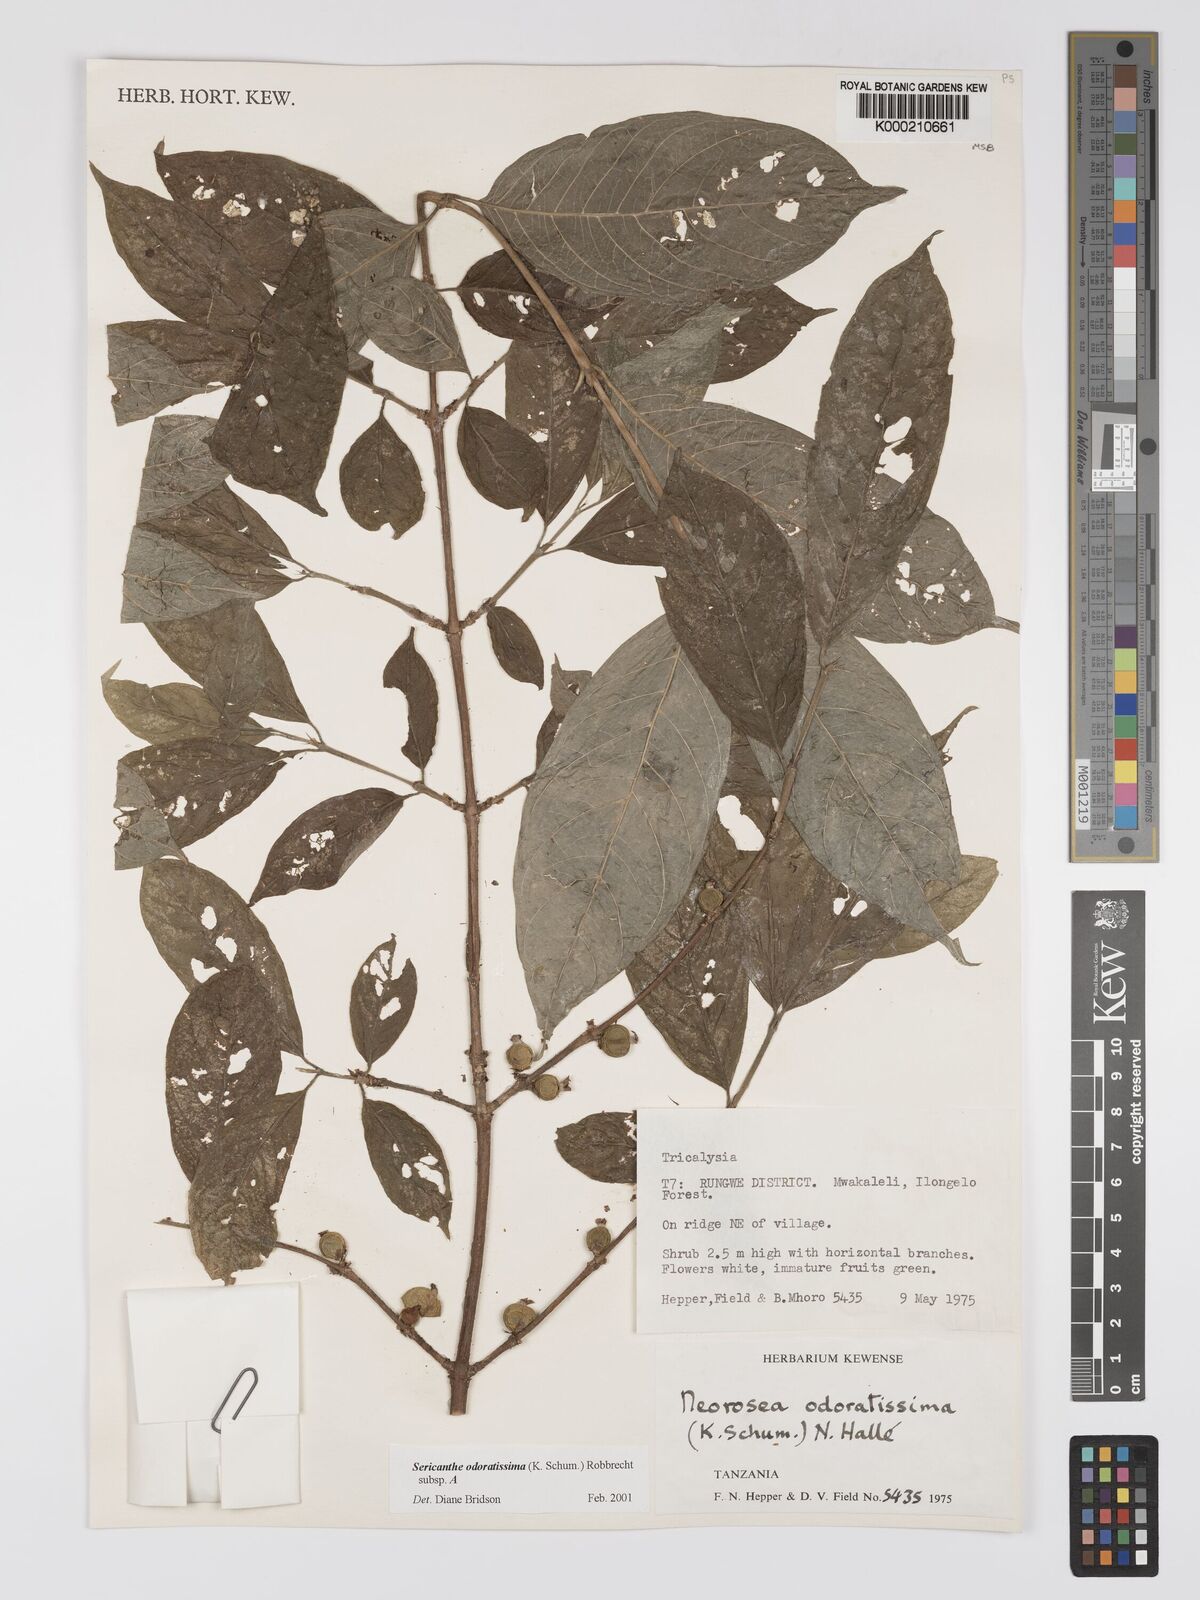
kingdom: Plantae
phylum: Tracheophyta
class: Magnoliopsida
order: Gentianales
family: Rubiaceae
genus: Sericanthe
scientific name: Sericanthe odoratissima
